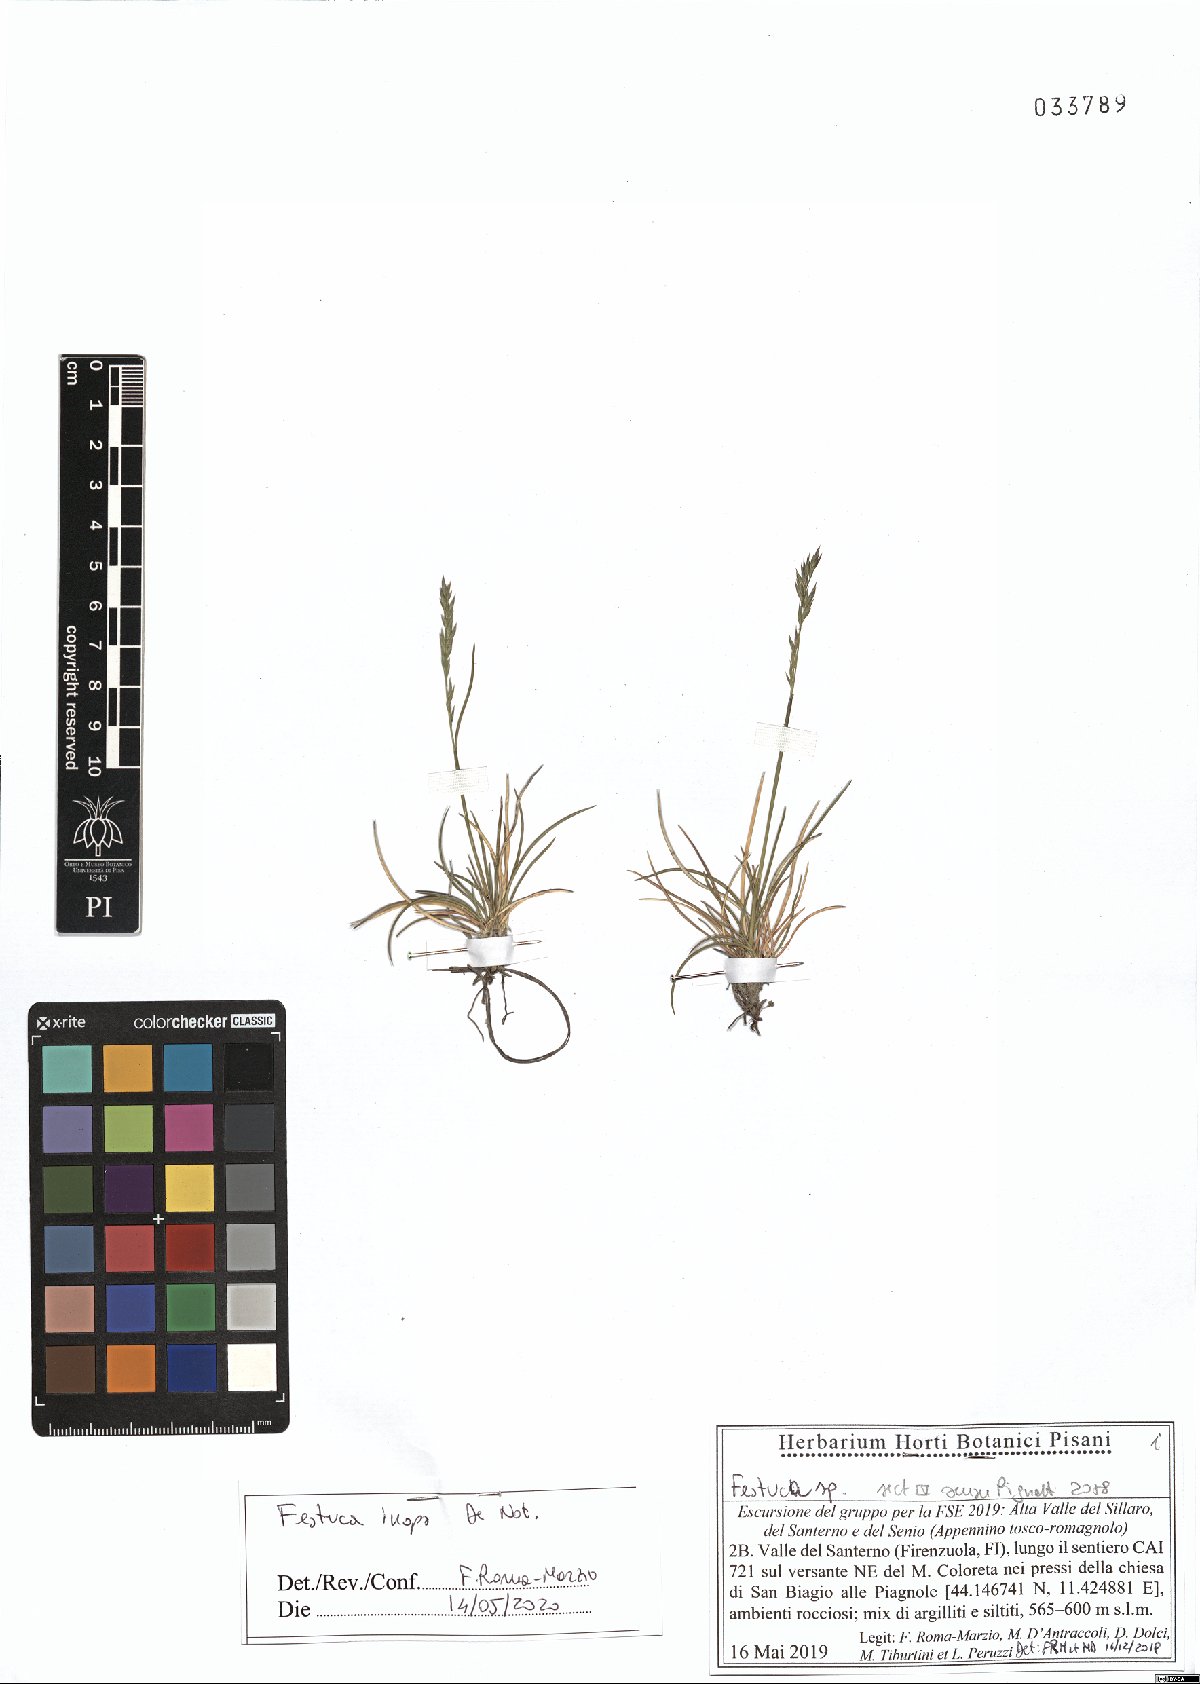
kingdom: Plantae
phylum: Tracheophyta
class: Liliopsida
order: Poales
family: Poaceae
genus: Festuca
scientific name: Festuca inops
